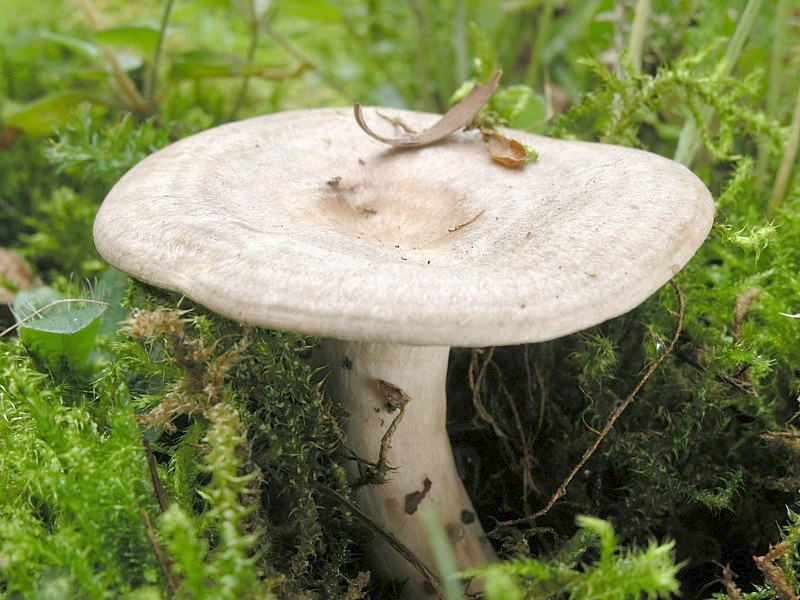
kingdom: Fungi
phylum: Basidiomycota
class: Agaricomycetes
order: Russulales
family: Russulaceae
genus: Lactarius
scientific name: Lactarius circellatus
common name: Circled milkcap
